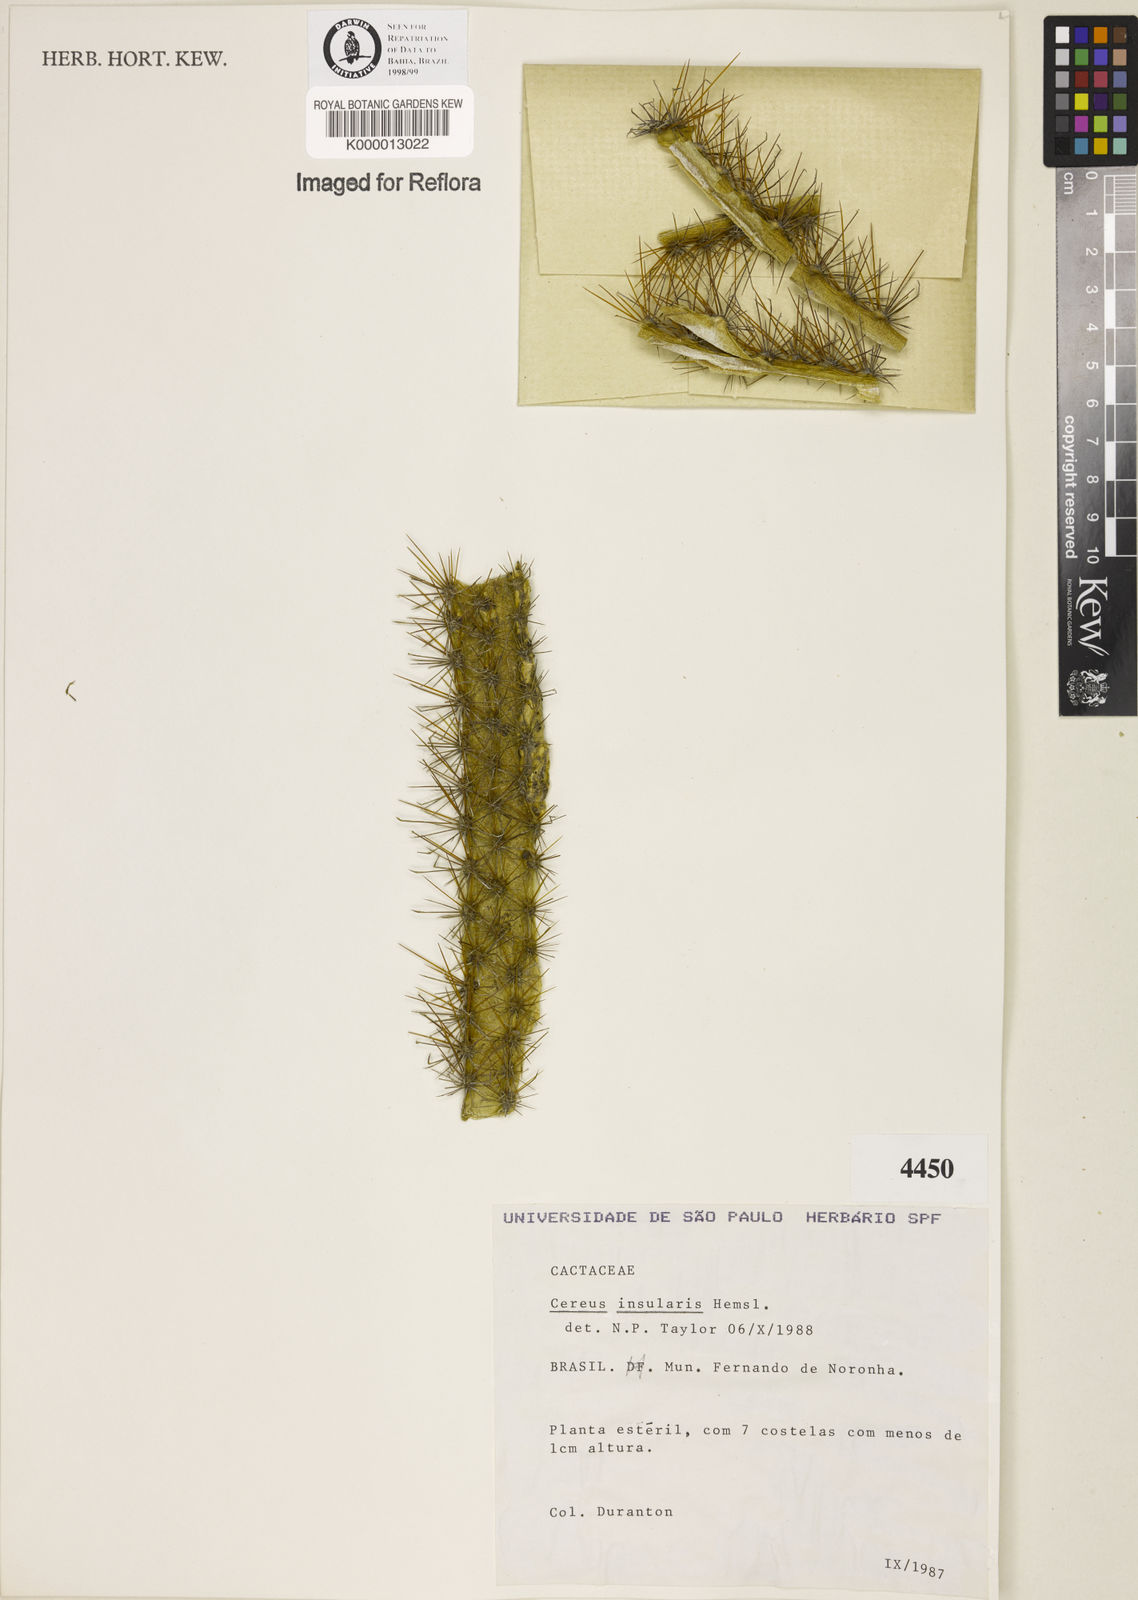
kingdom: Plantae
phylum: Tracheophyta
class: Magnoliopsida
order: Caryophyllales
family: Cactaceae
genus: Cereus
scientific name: Cereus insularis
